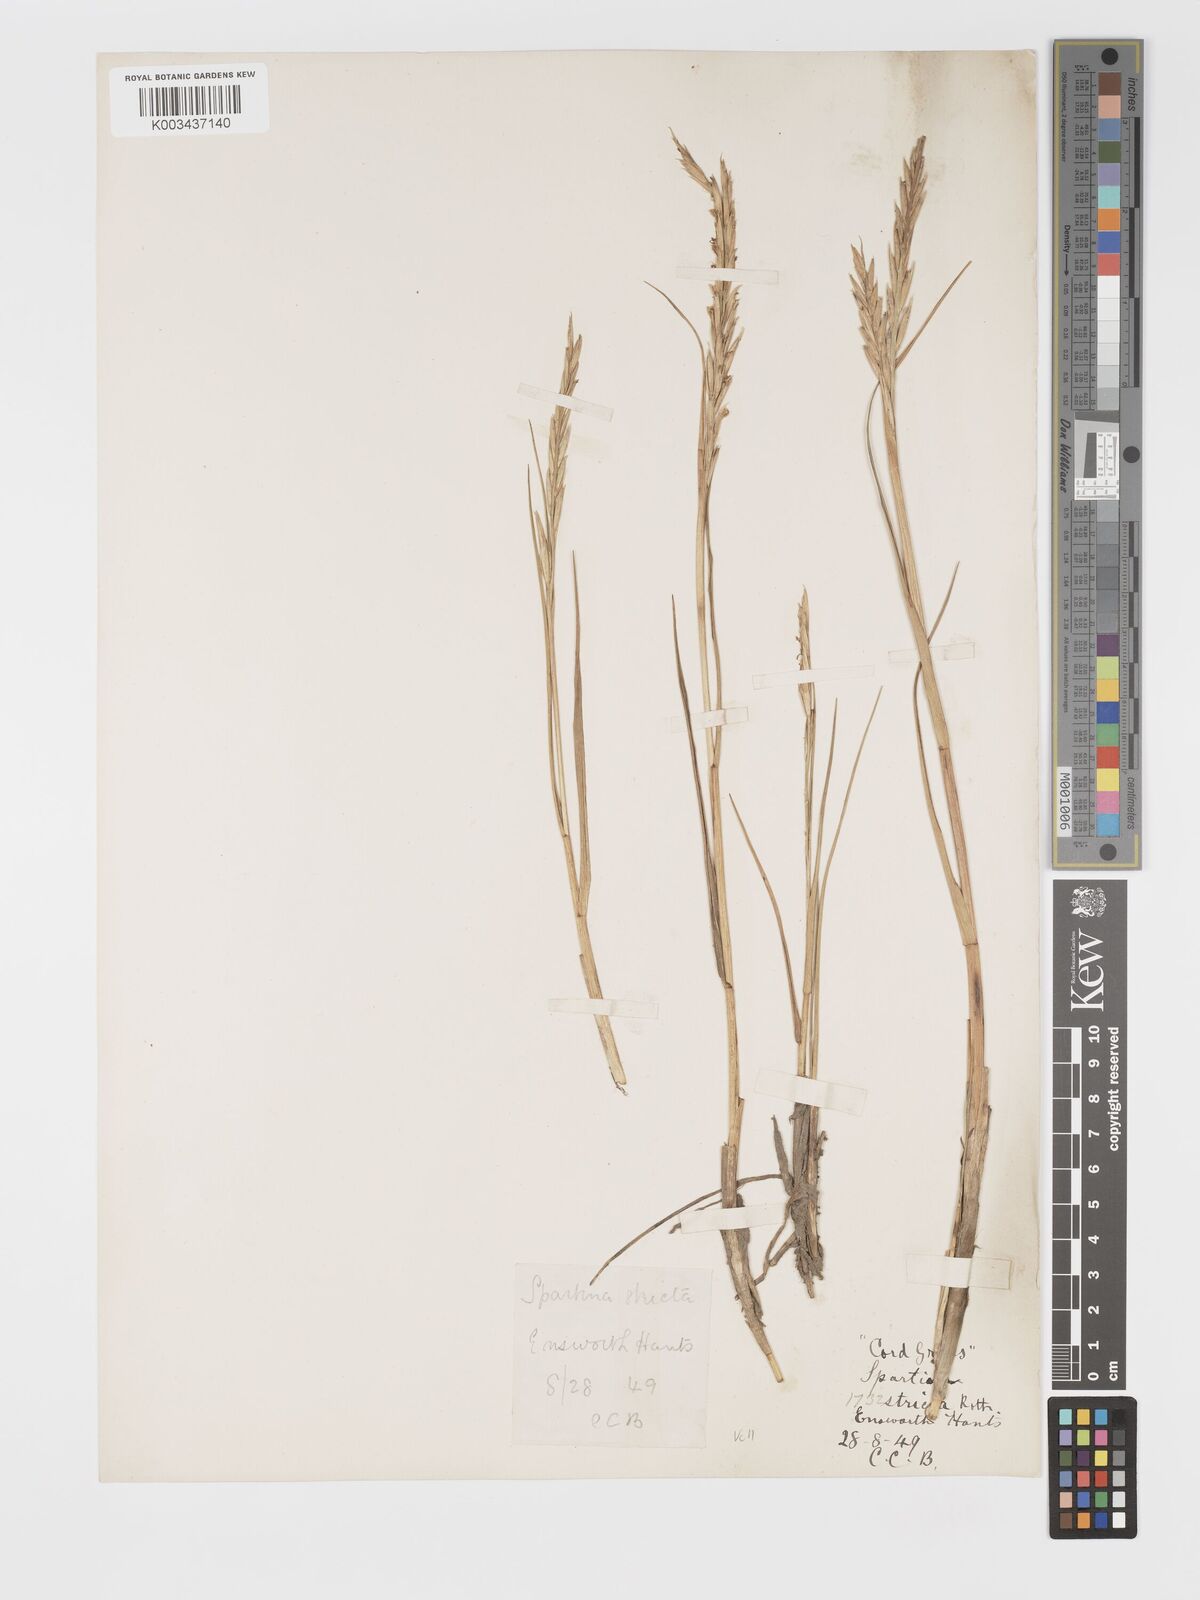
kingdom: Plantae
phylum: Tracheophyta
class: Liliopsida
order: Poales
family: Poaceae
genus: Sporobolus
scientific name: Sporobolus maritimus
